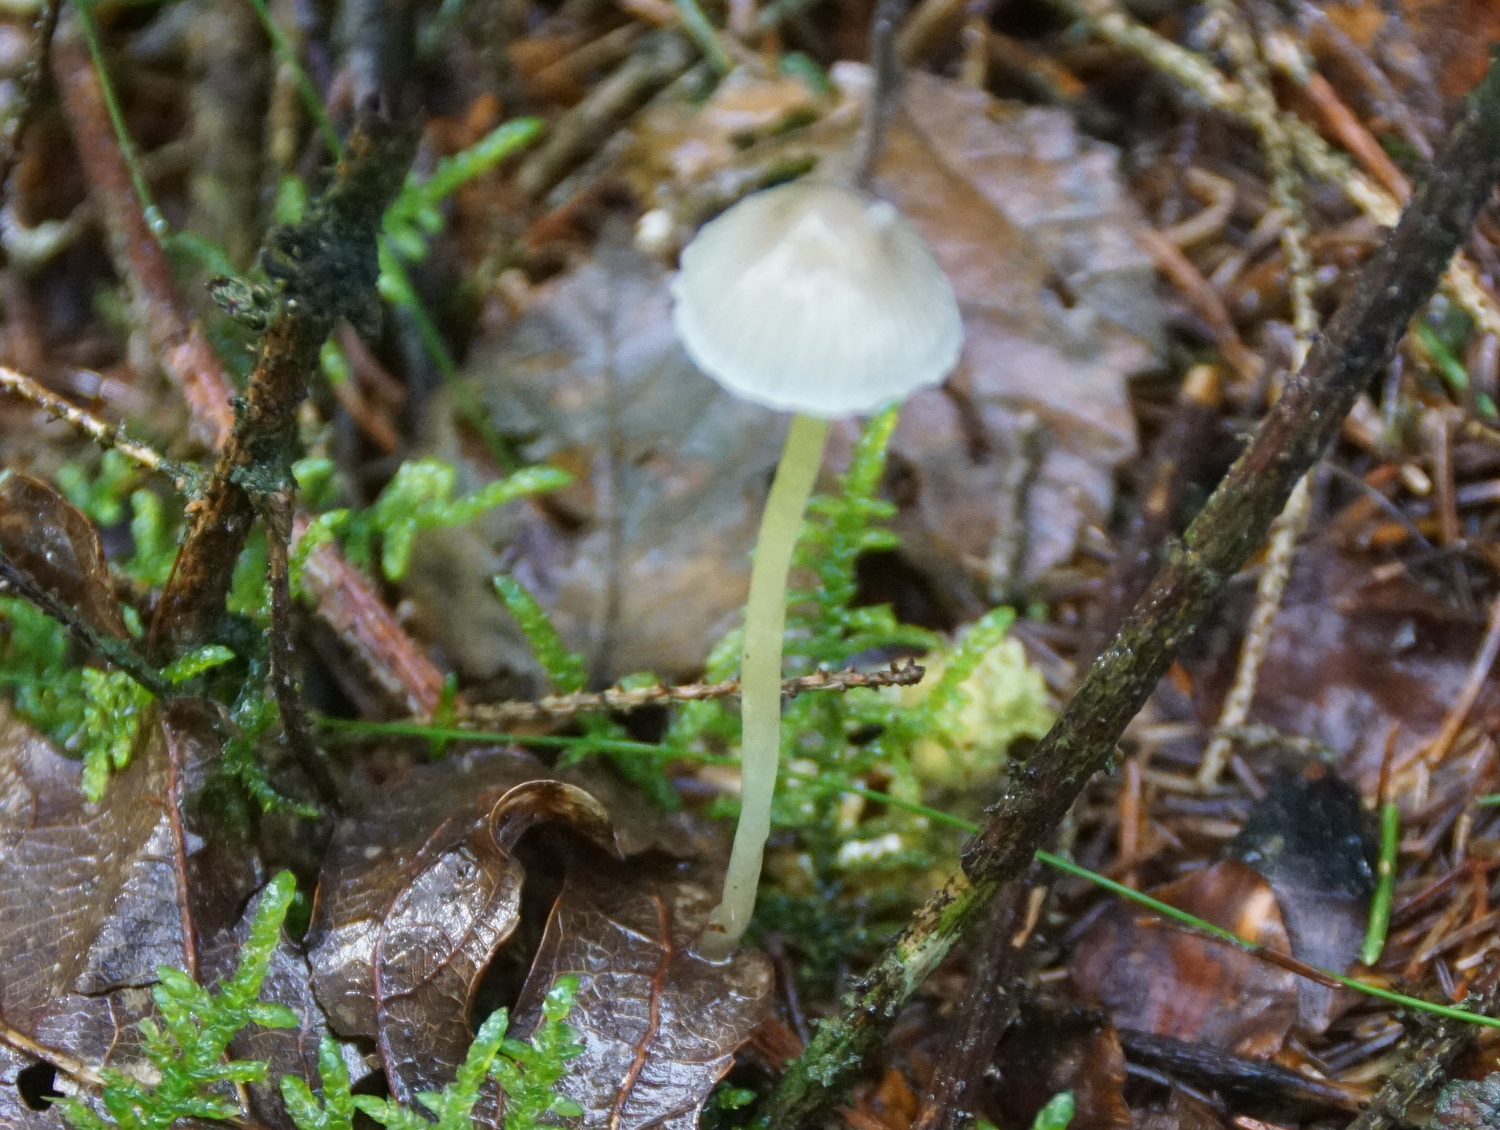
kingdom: Fungi
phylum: Basidiomycota
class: Agaricomycetes
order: Agaricales
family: Mycenaceae
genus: Mycena
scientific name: Mycena epipterygia
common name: gulstokket huesvamp
